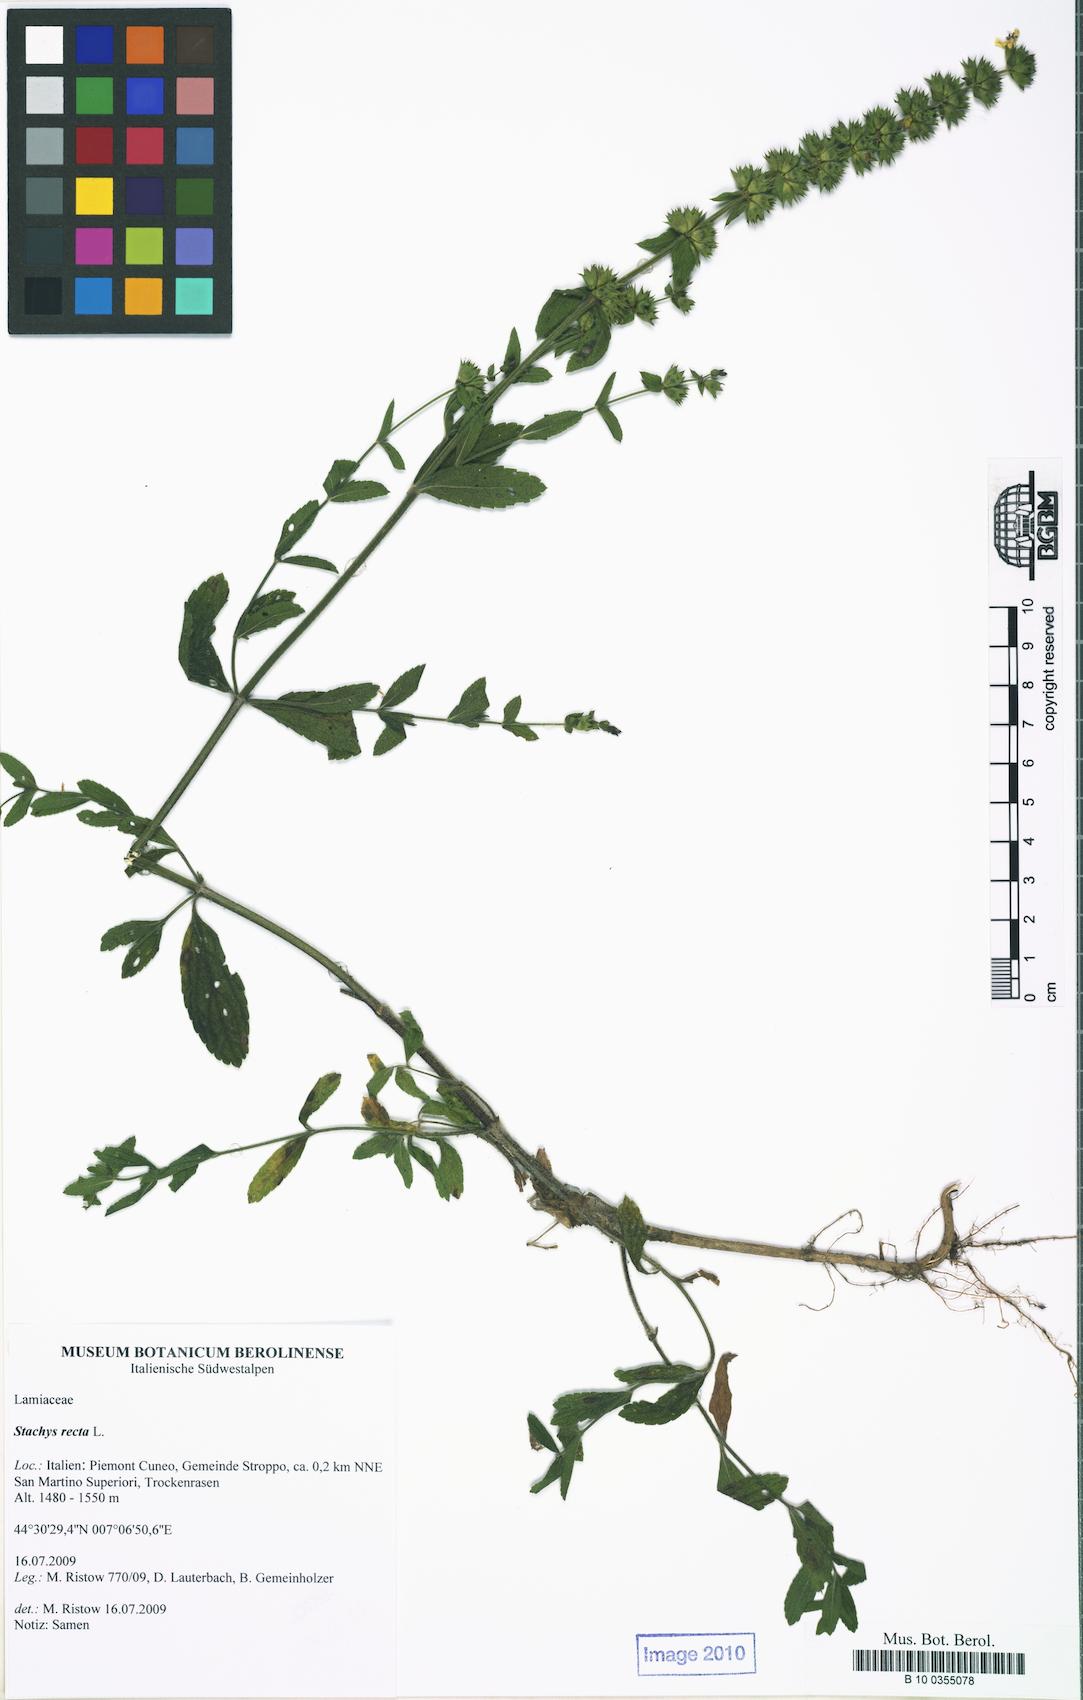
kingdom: Plantae
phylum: Tracheophyta
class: Magnoliopsida
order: Lamiales
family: Lamiaceae
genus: Stachys
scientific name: Stachys recta
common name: Perennial yellow-woundwort
